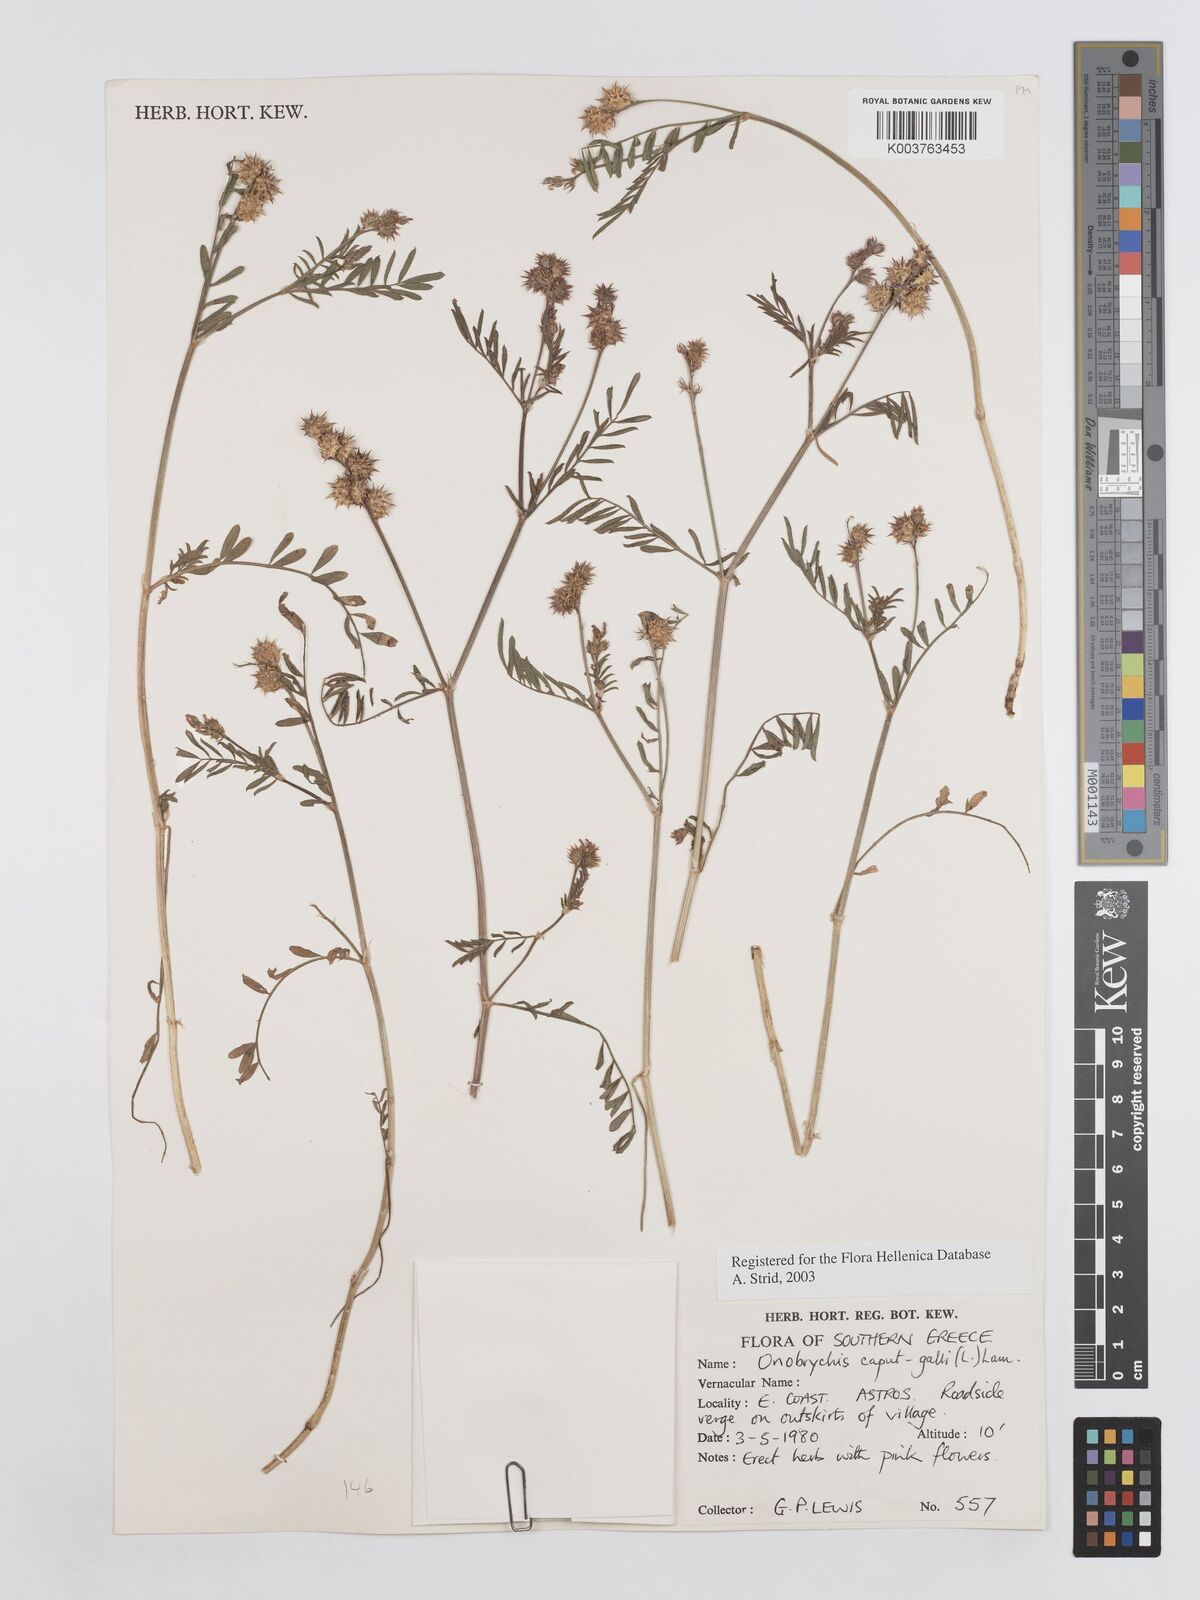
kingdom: Plantae
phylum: Tracheophyta
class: Magnoliopsida
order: Fabales
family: Fabaceae
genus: Onobrychis
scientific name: Onobrychis caput-galli
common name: Cockscomb sainfoin
